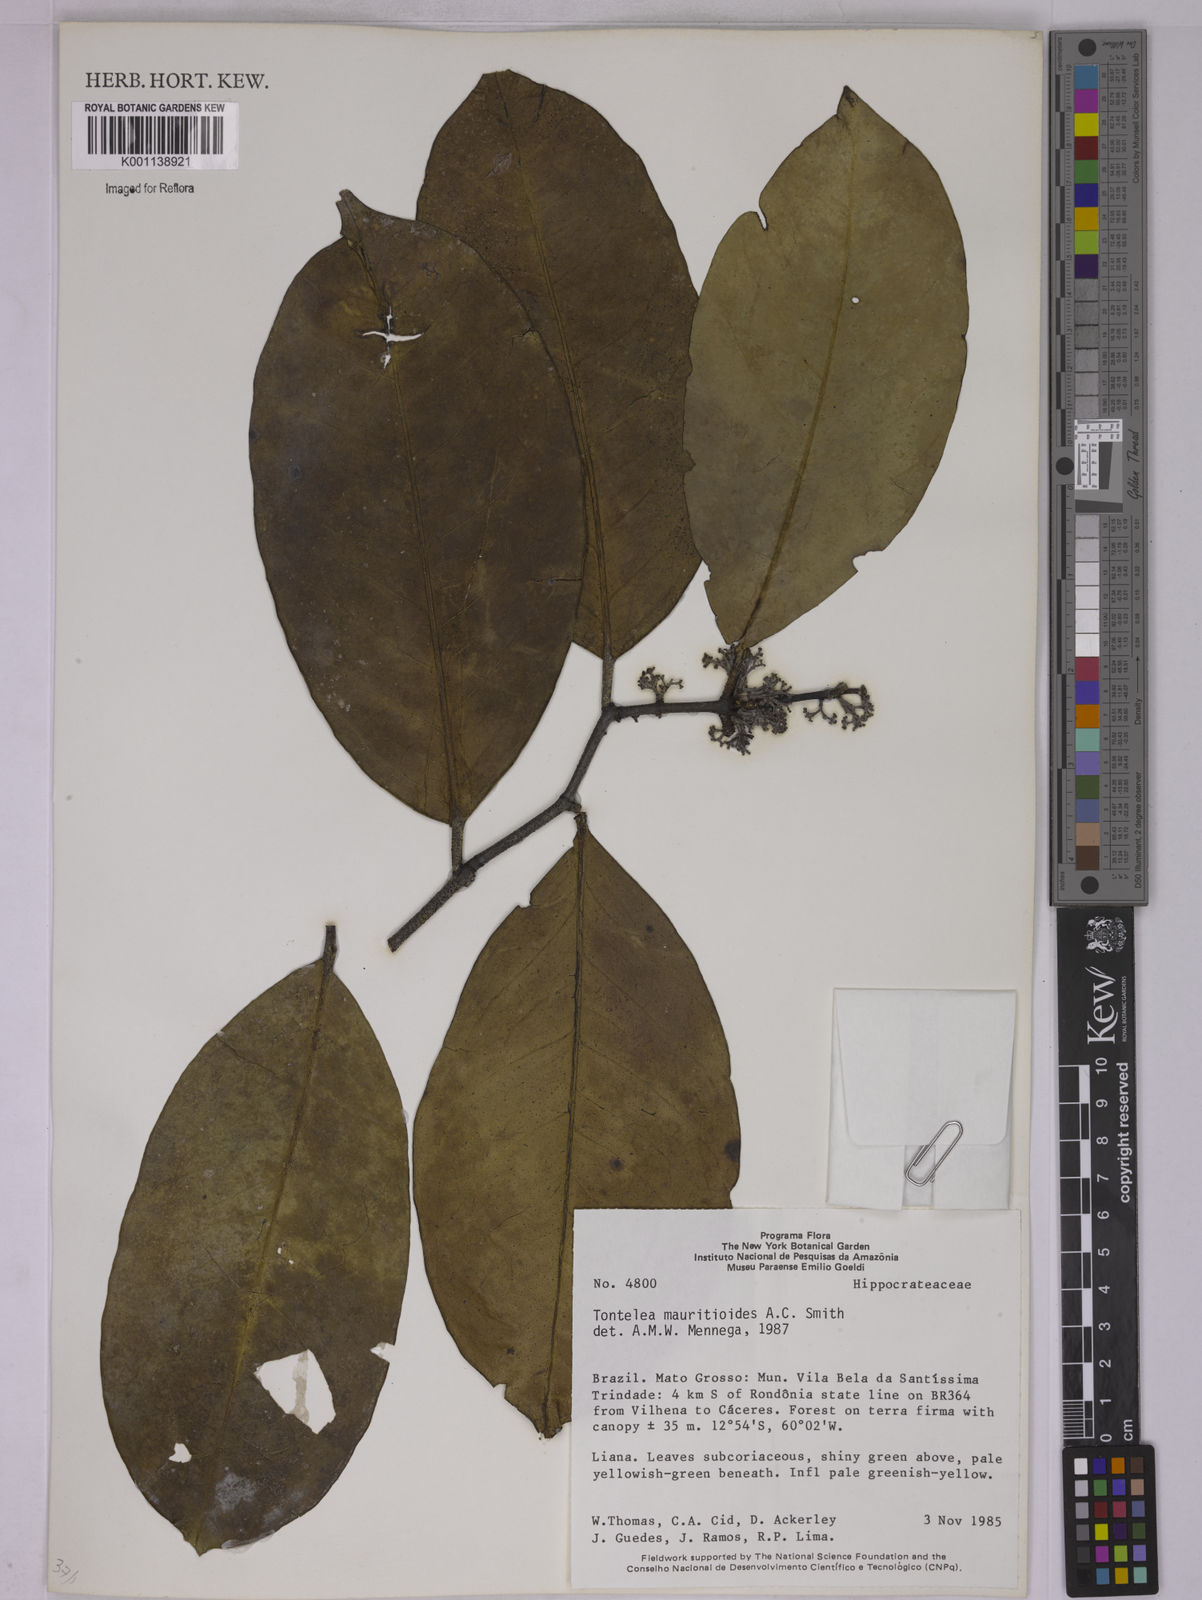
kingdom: Plantae
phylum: Tracheophyta
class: Magnoliopsida
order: Celastrales
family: Celastraceae
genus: Tontelea
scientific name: Tontelea mauritioides
